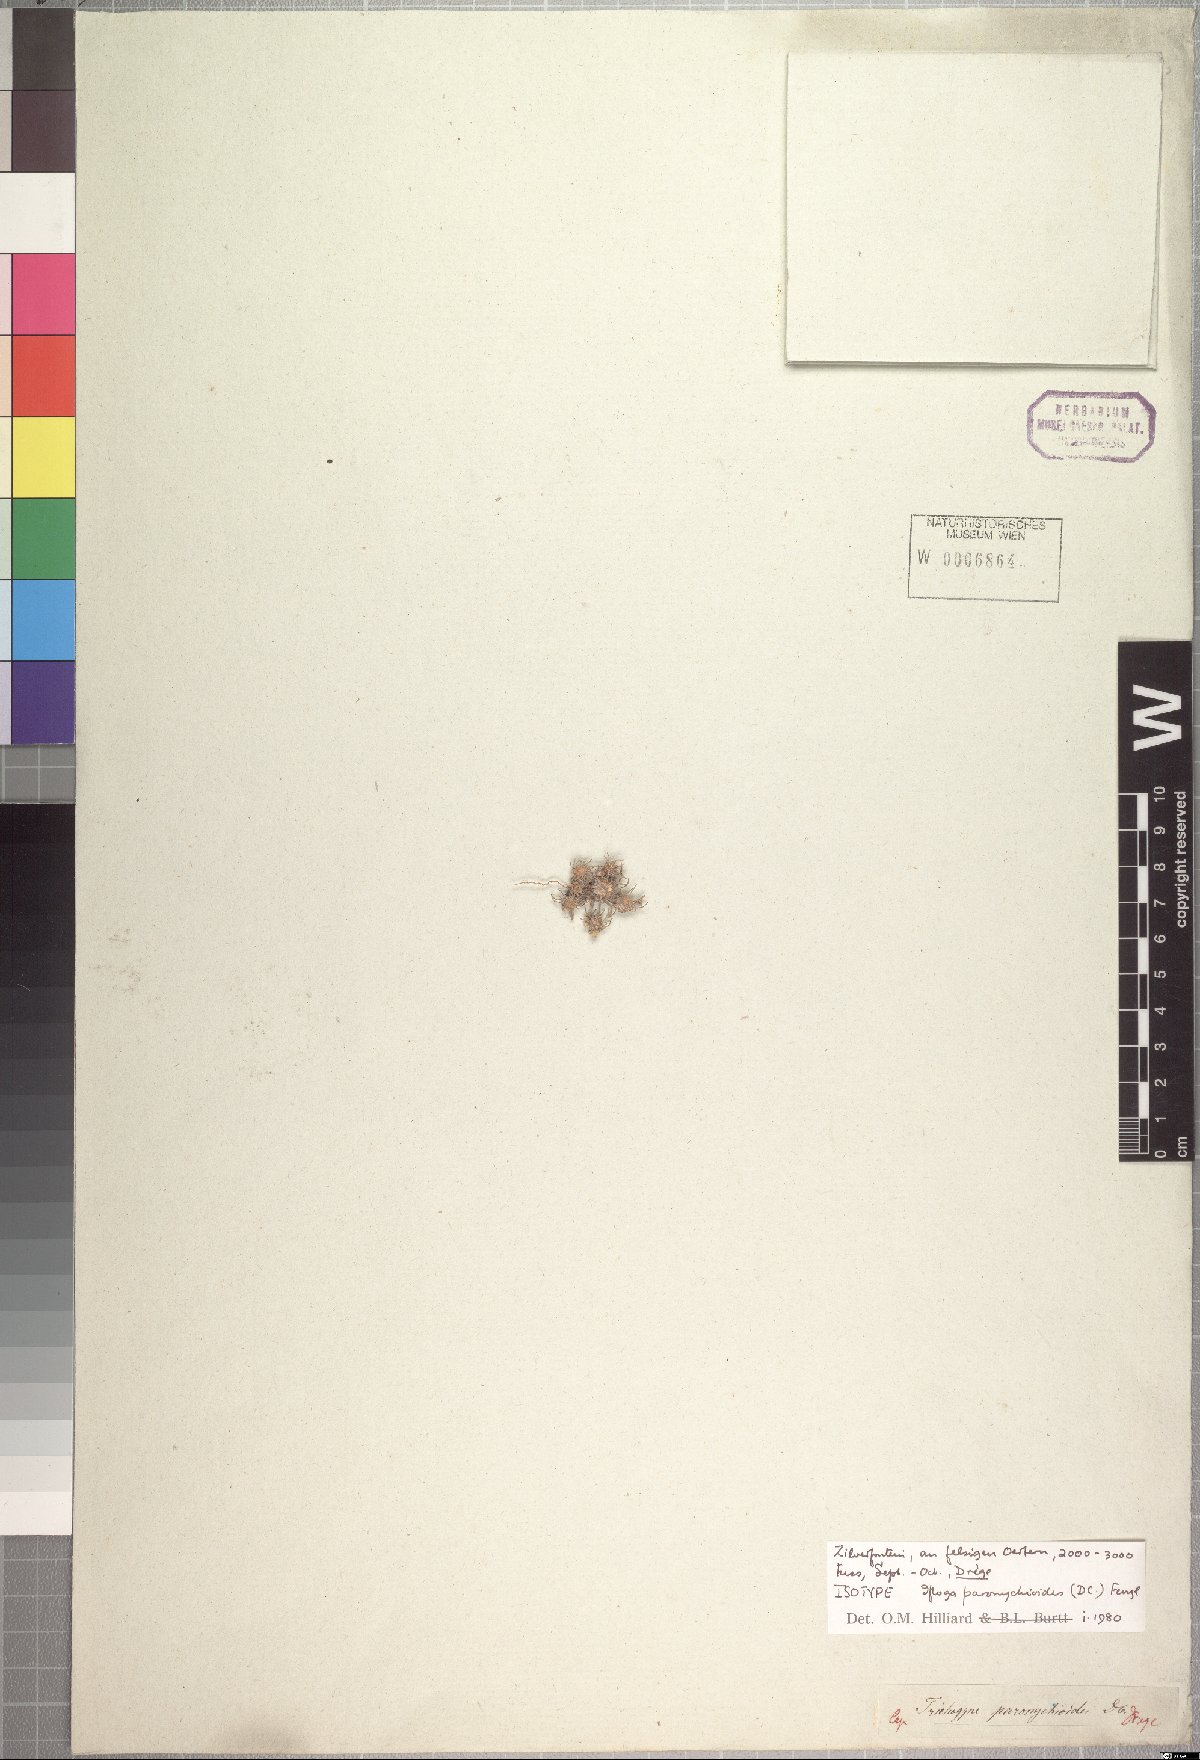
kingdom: Plantae
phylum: Tracheophyta
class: Magnoliopsida
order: Asterales
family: Asteraceae
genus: Ifloga
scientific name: Ifloga paronychioides
